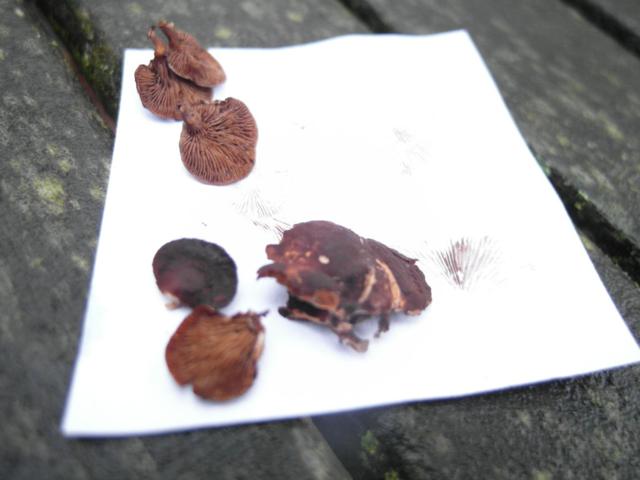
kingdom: Fungi
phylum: Basidiomycota
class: Agaricomycetes
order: Agaricales
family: Strophariaceae
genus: Deconica
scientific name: Deconica horizontalis
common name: ved-stråhat
